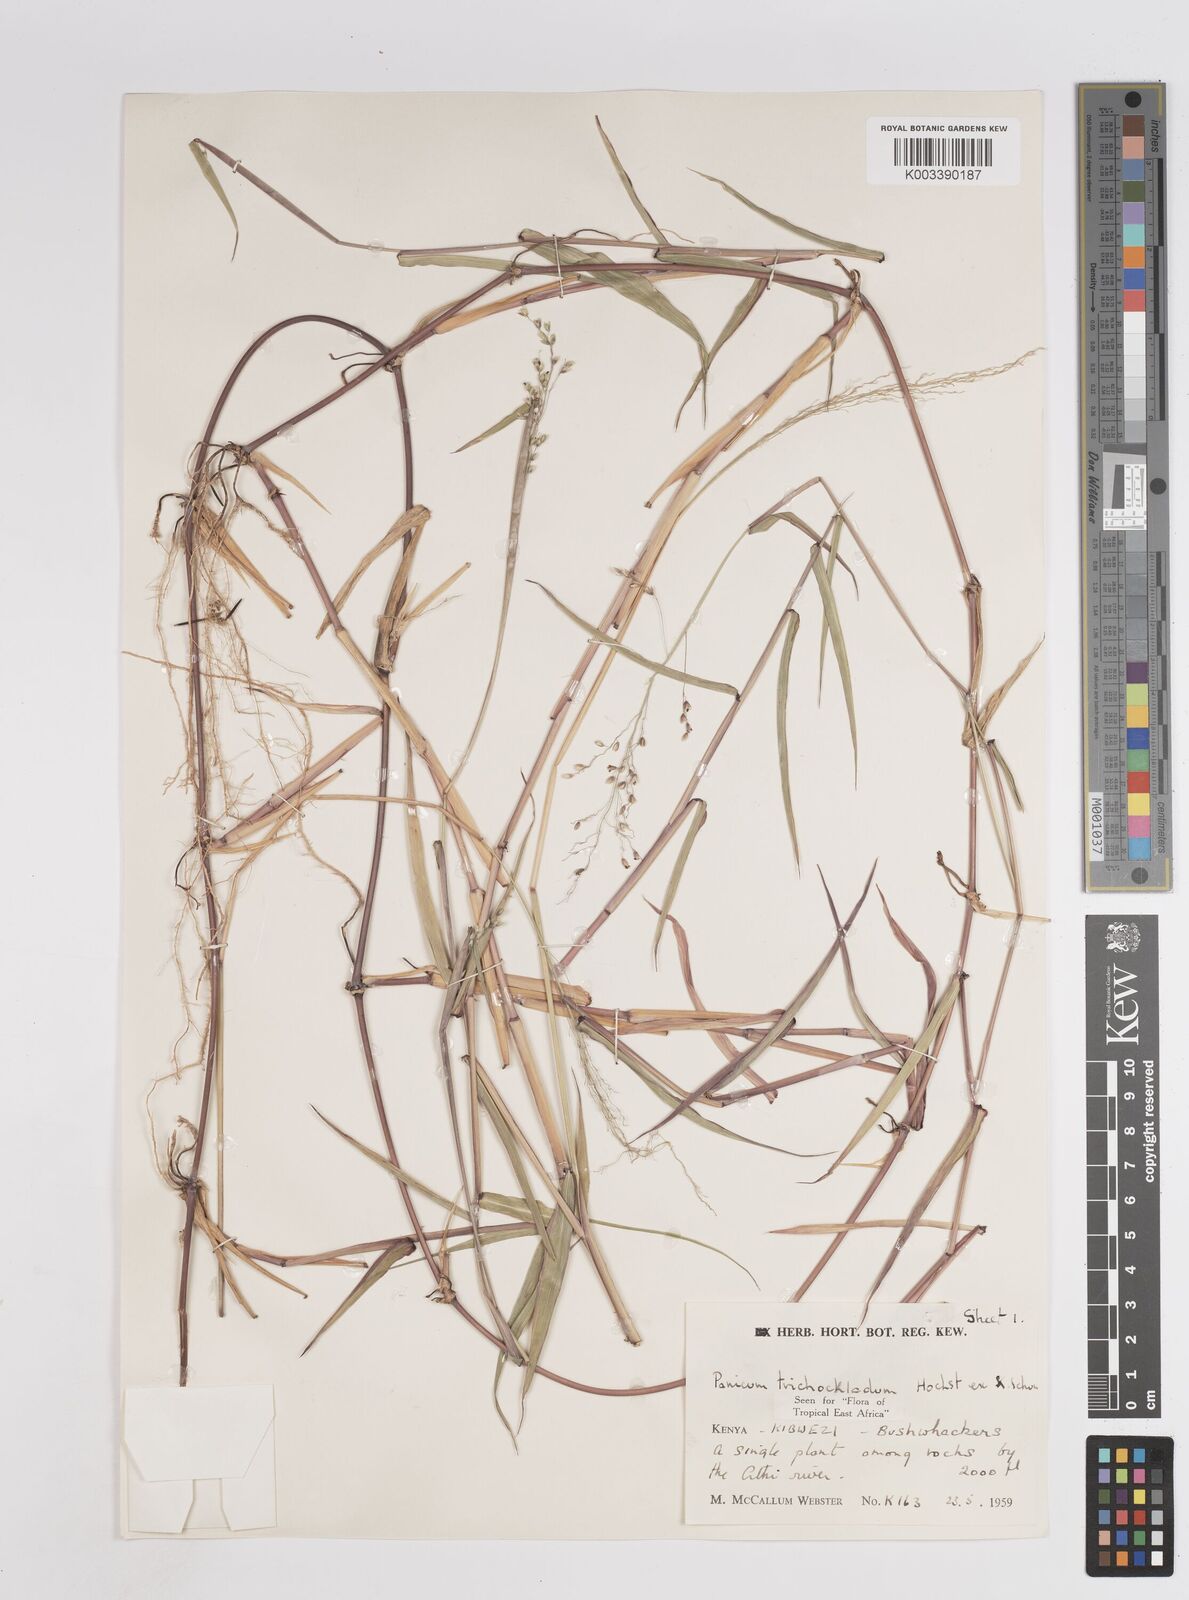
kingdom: Plantae
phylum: Tracheophyta
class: Liliopsida
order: Poales
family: Poaceae
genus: Panicum
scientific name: Panicum trichocladum
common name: Donkey grass
